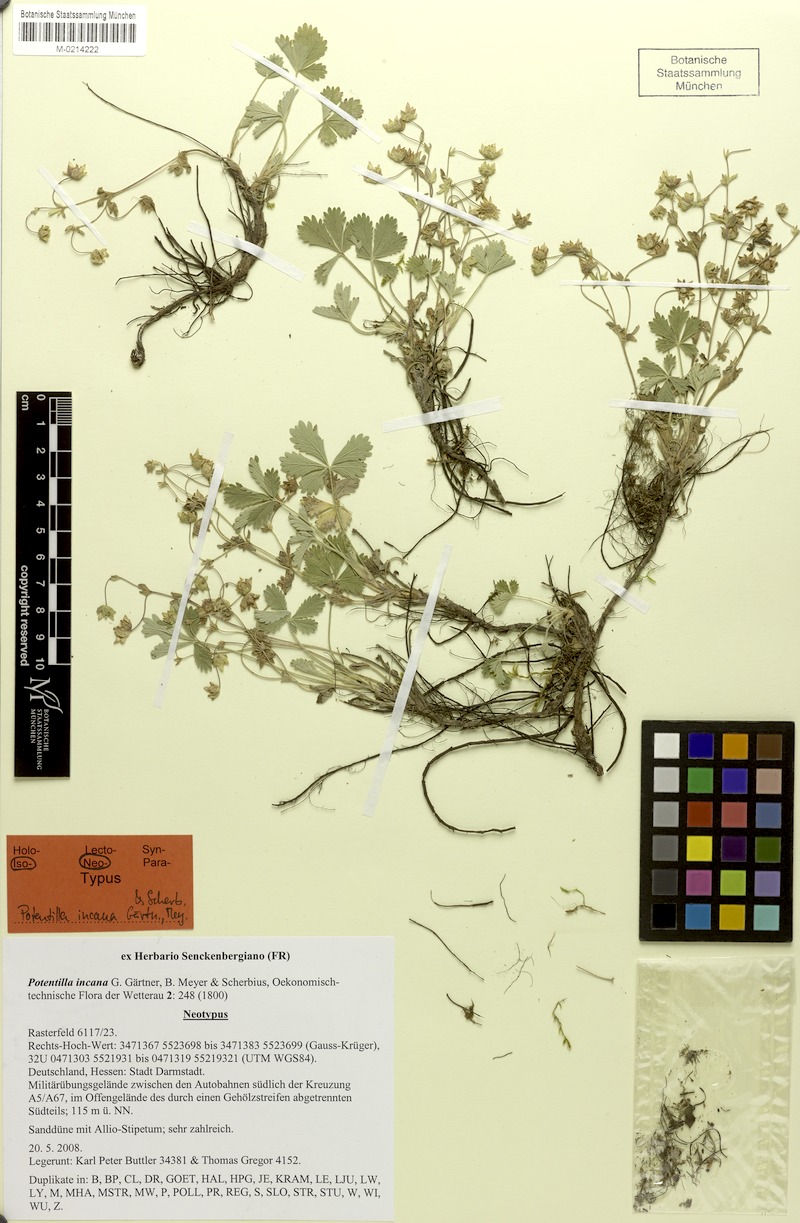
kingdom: Plantae
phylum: Tracheophyta
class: Magnoliopsida
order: Rosales
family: Rosaceae
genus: Potentilla
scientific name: Potentilla cinerea
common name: Ashy cinquefoil
